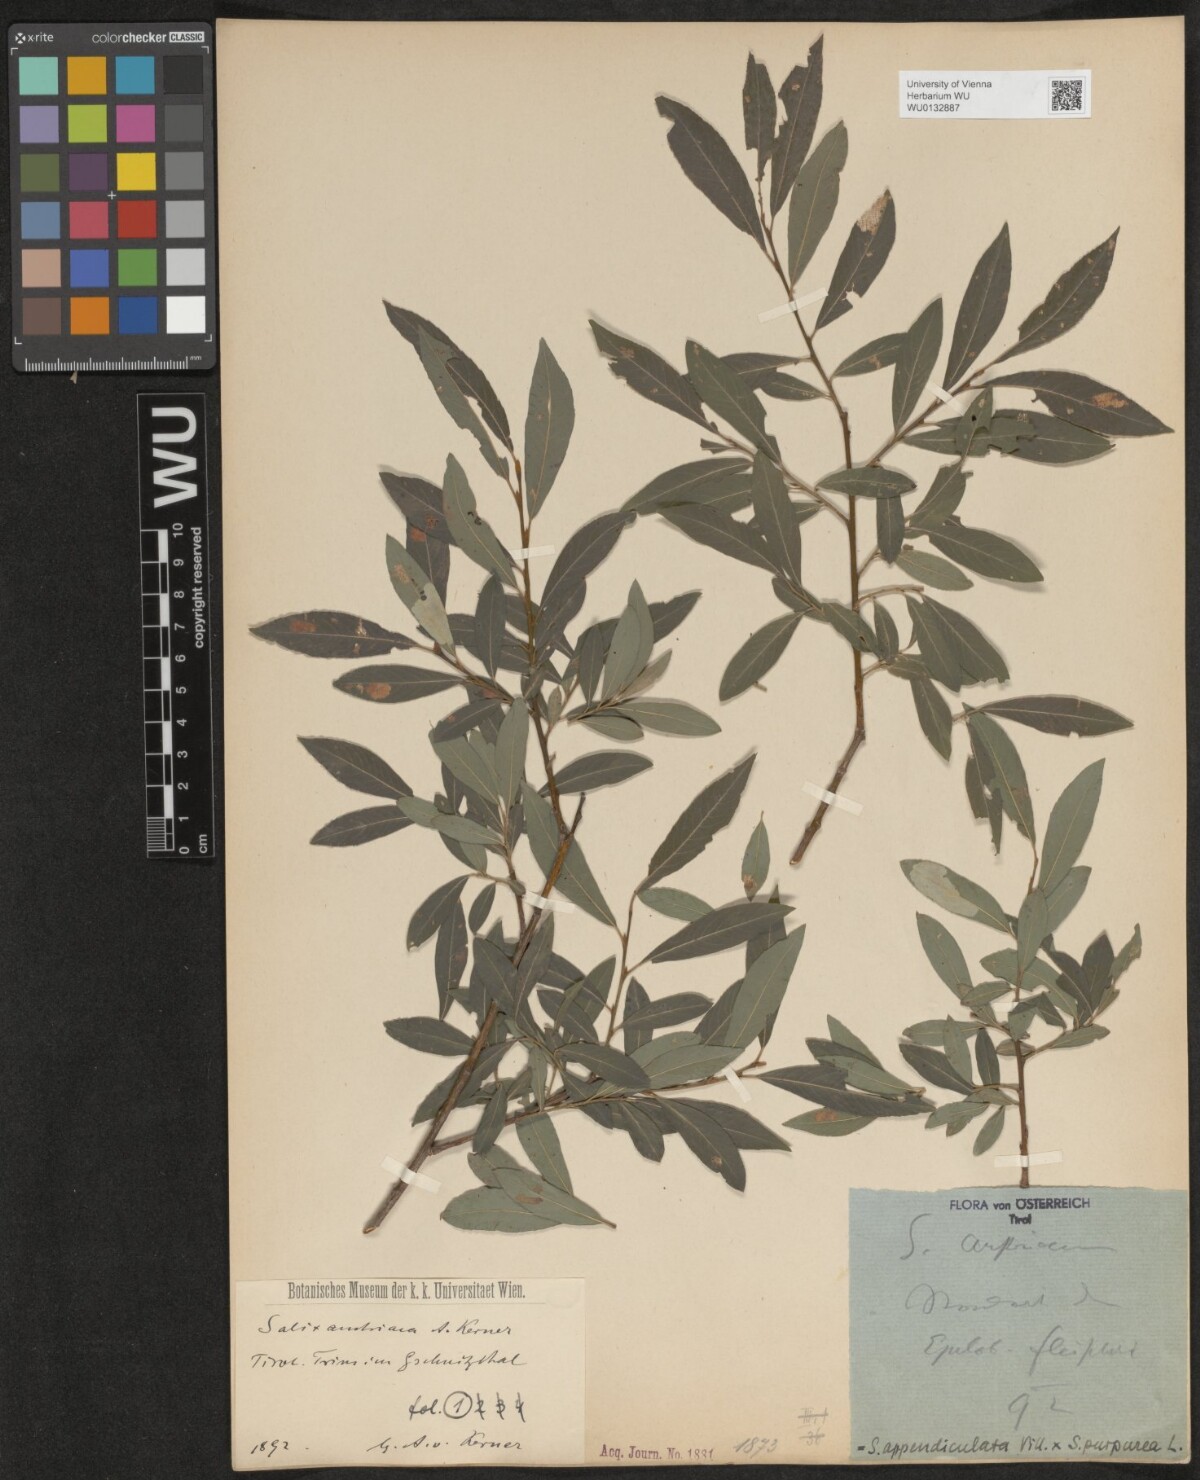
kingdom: Plantae
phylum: Tracheophyta
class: Magnoliopsida
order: Malpighiales
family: Salicaceae
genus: Salix
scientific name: Salix austriaca
